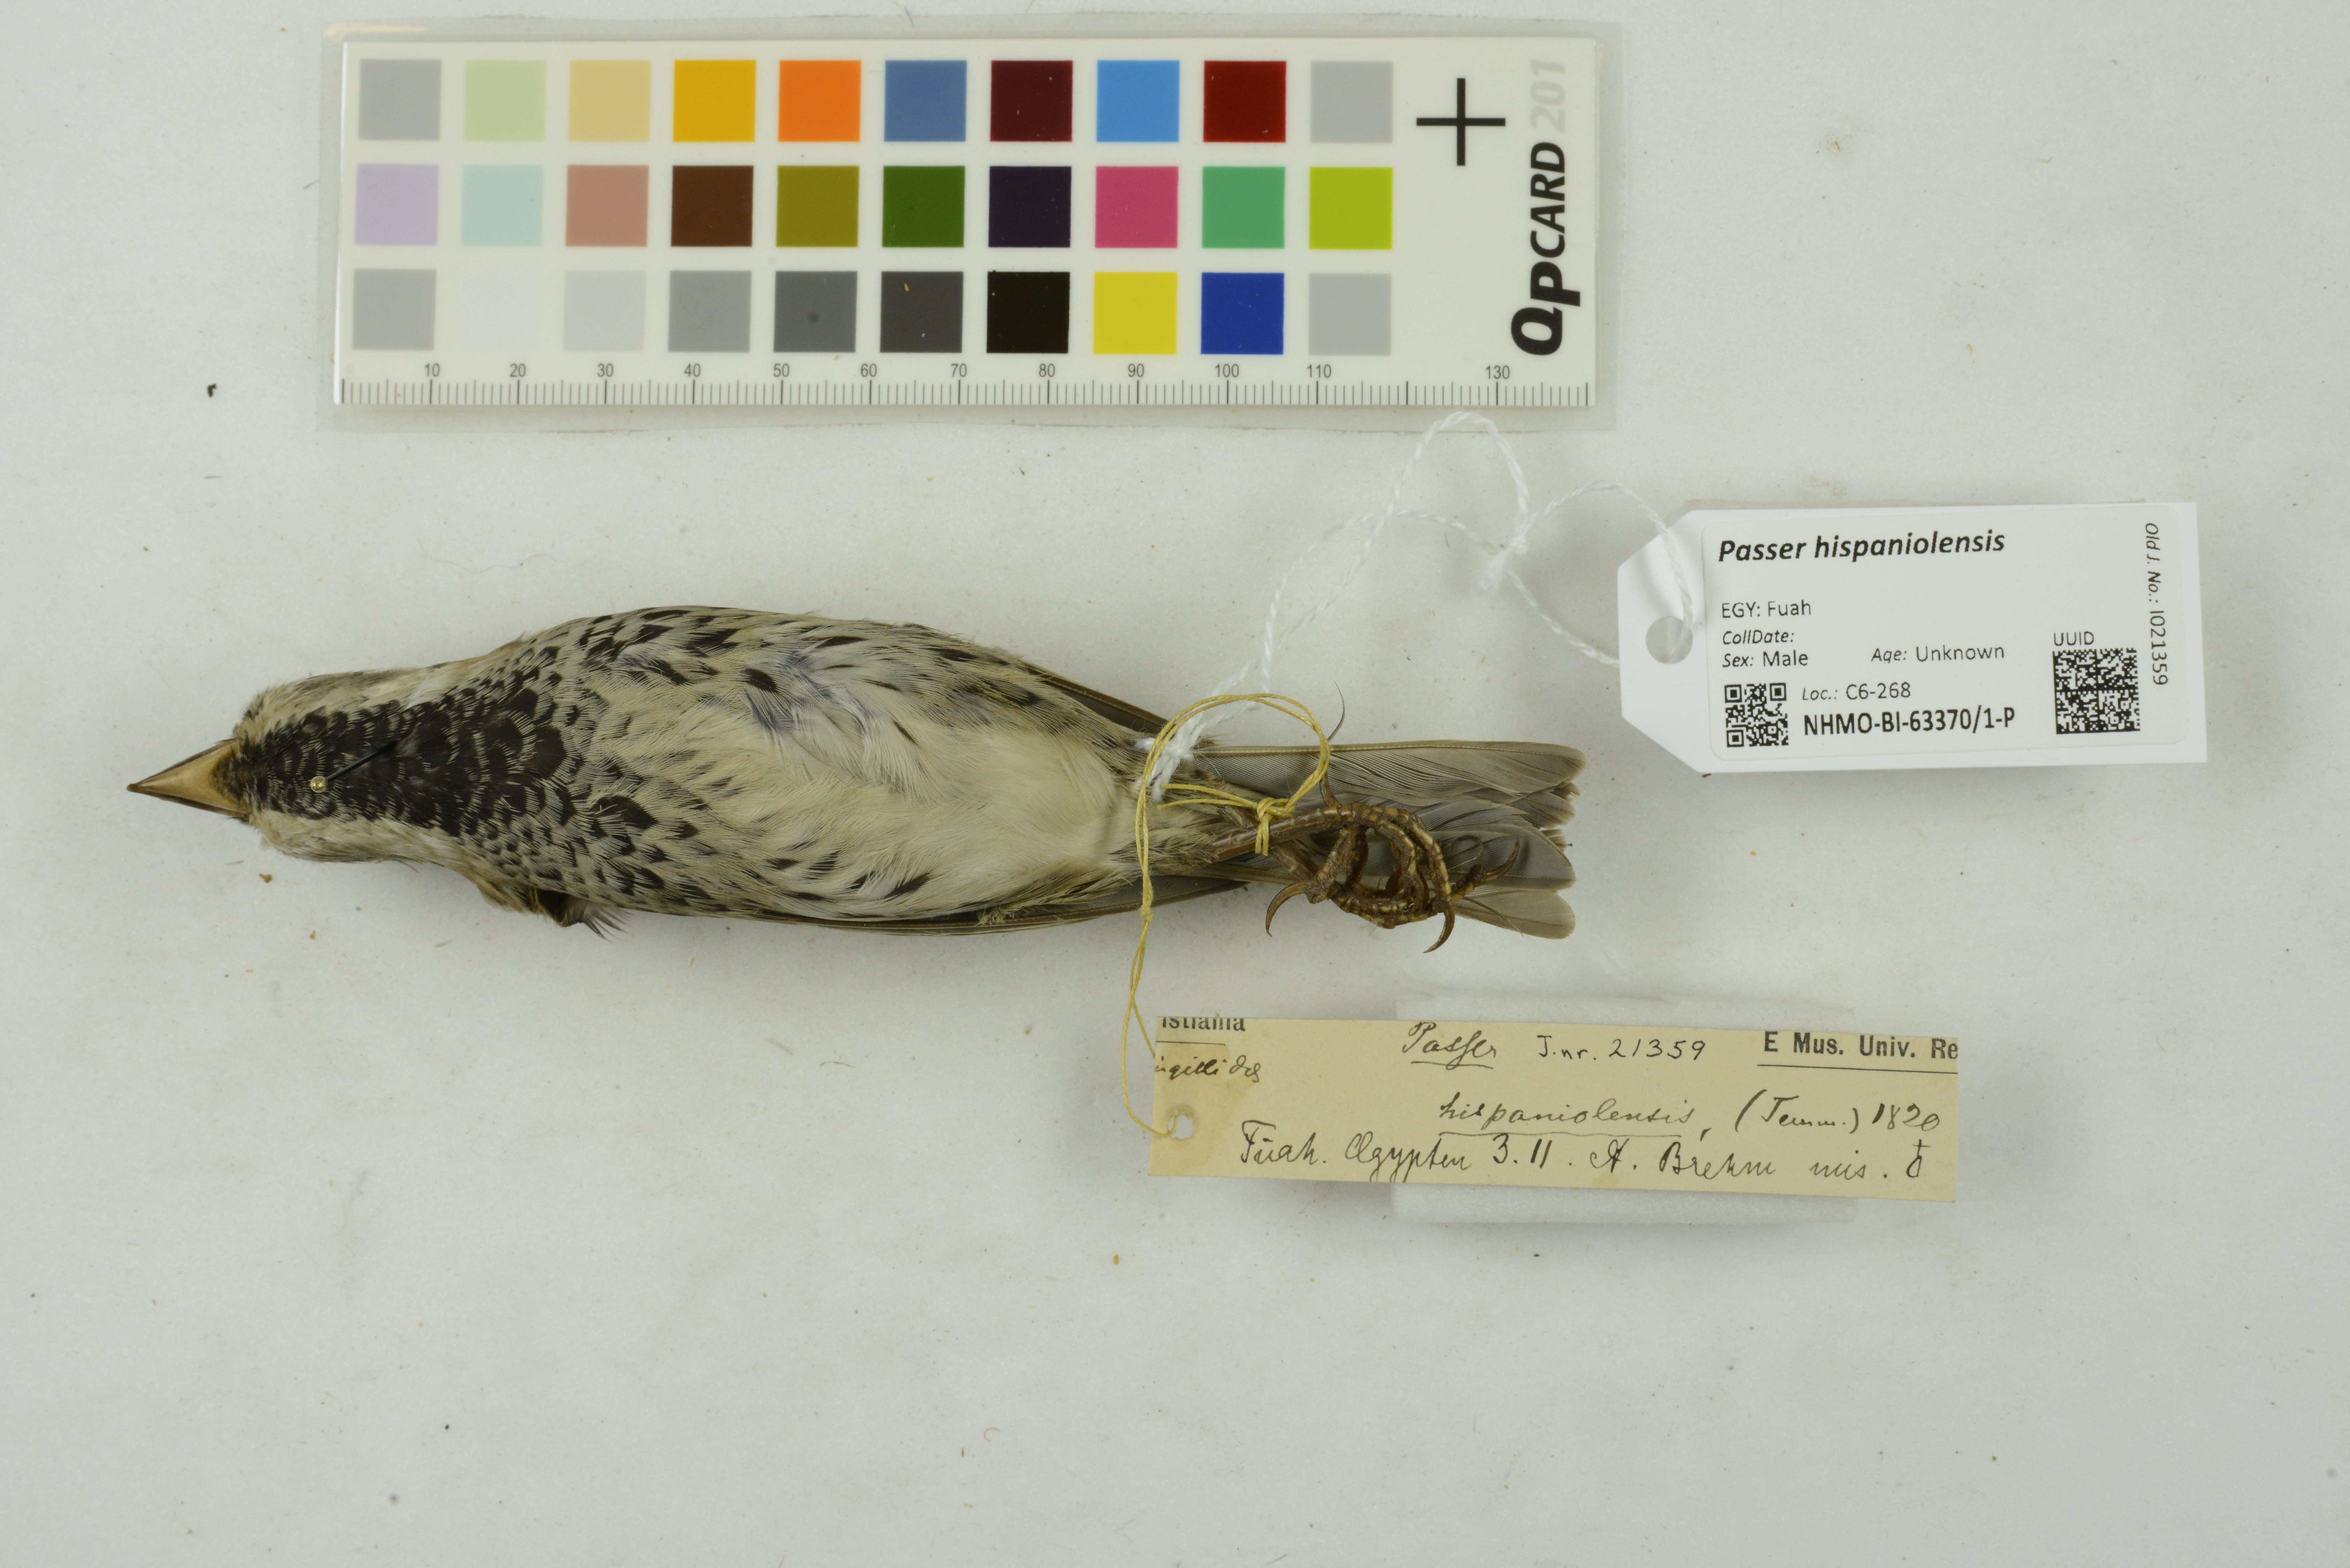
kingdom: Animalia
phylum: Chordata
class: Aves
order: Passeriformes
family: Passeridae
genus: Passer
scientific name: Passer hispaniolensis
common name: Spanish sparrow
